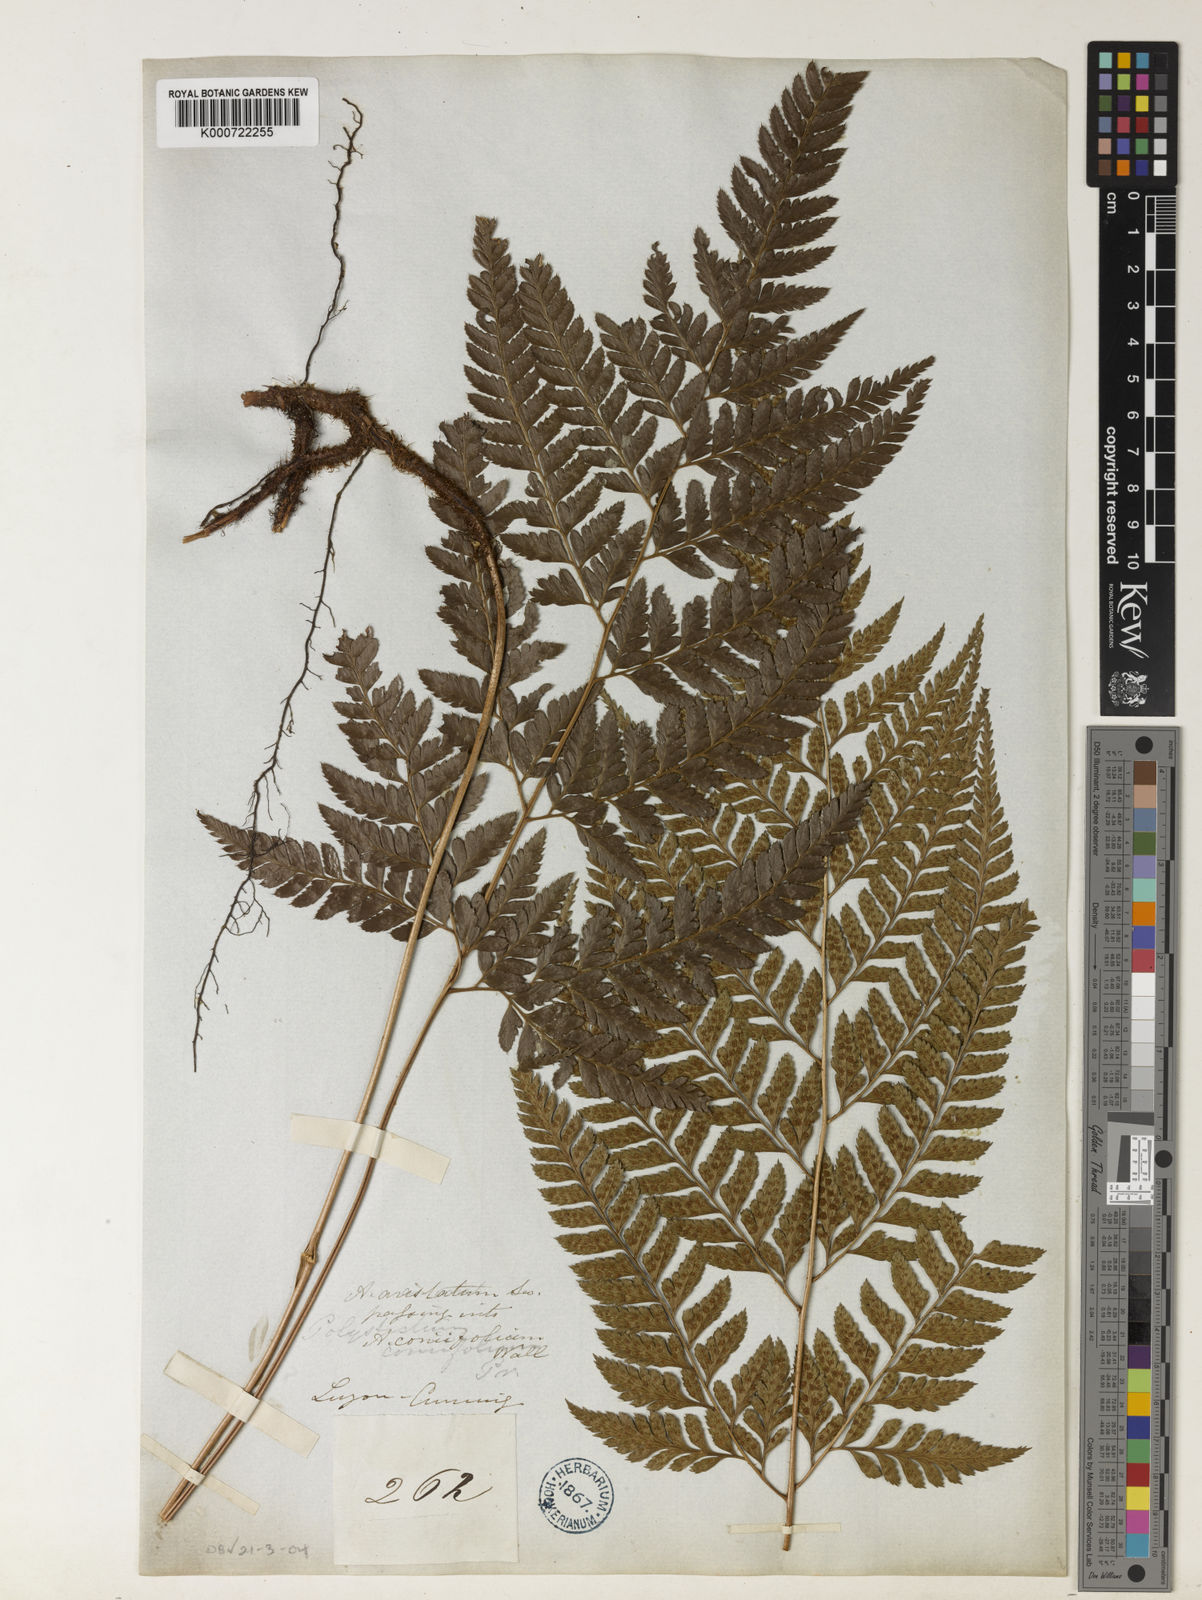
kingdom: Plantae
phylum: Tracheophyta
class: Polypodiopsida
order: Polypodiales
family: Dryopteridaceae
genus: Arachniodes
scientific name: Arachniodes aristata
